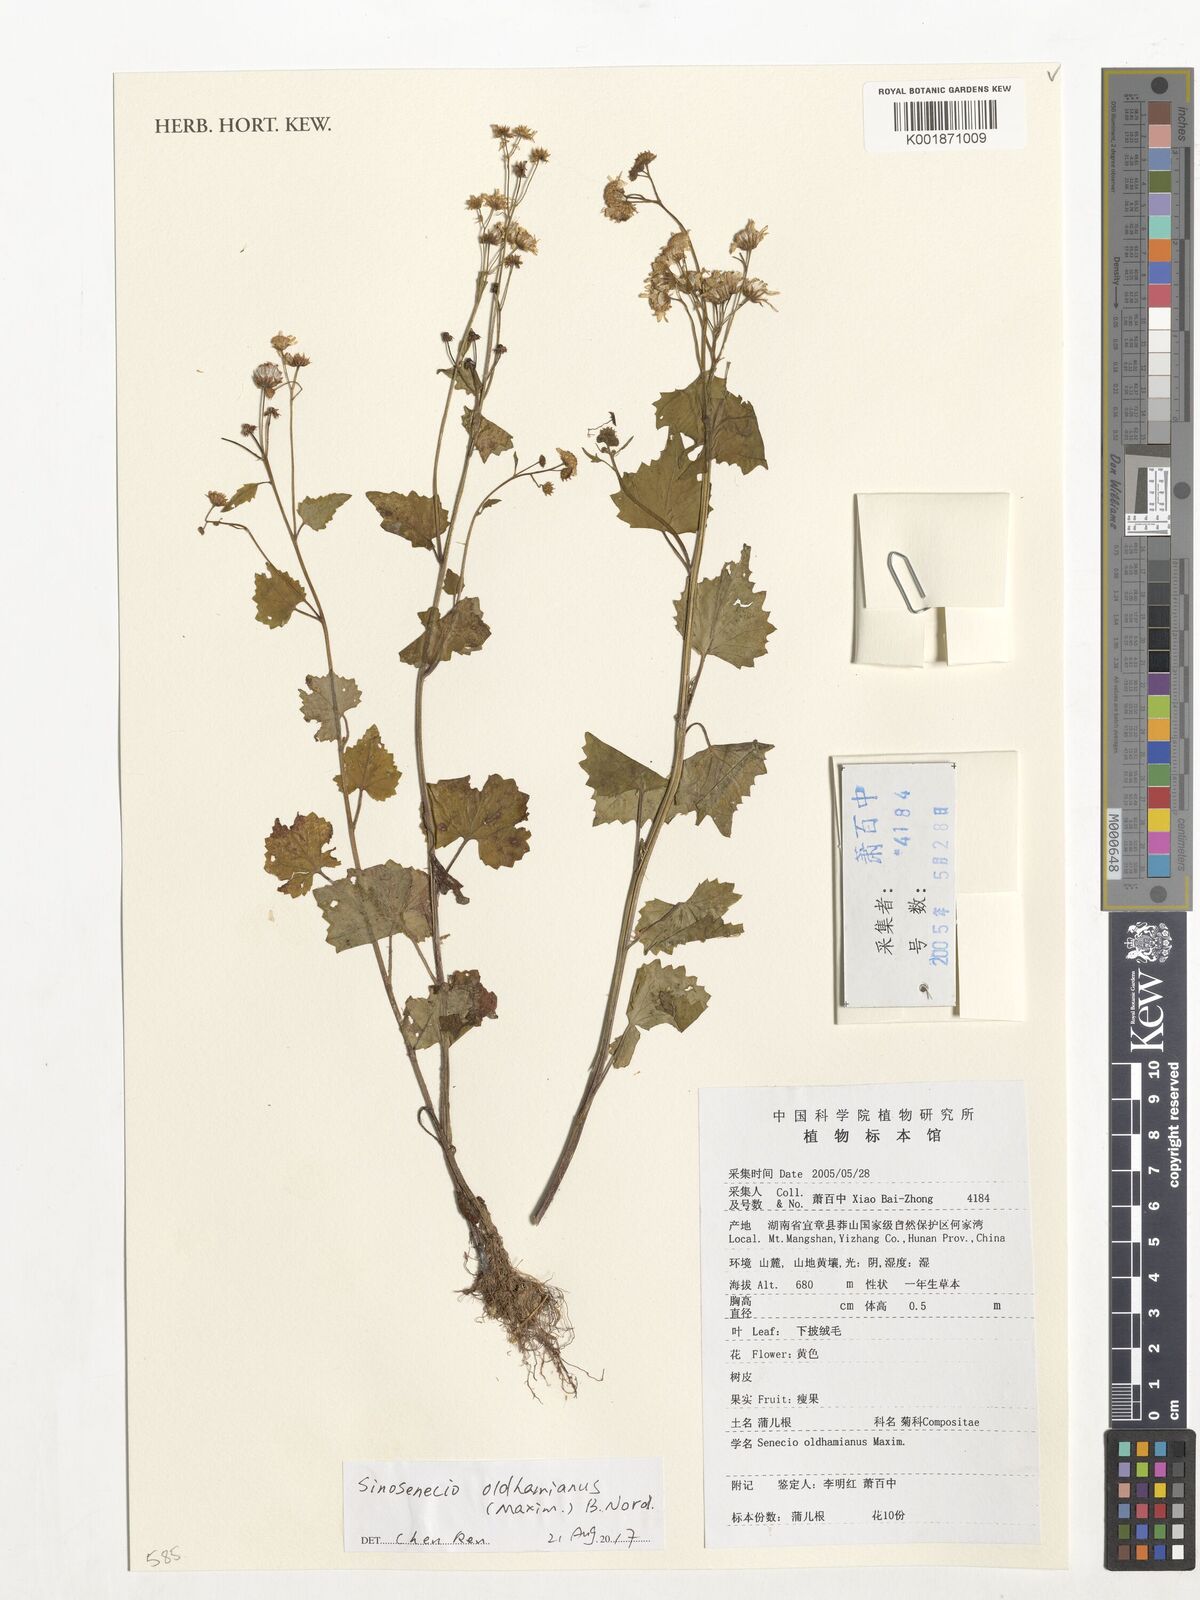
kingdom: Plantae
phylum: Tracheophyta
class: Magnoliopsida
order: Asterales
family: Asteraceae
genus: Sinosenecio
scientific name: Sinosenecio oldhamianus
